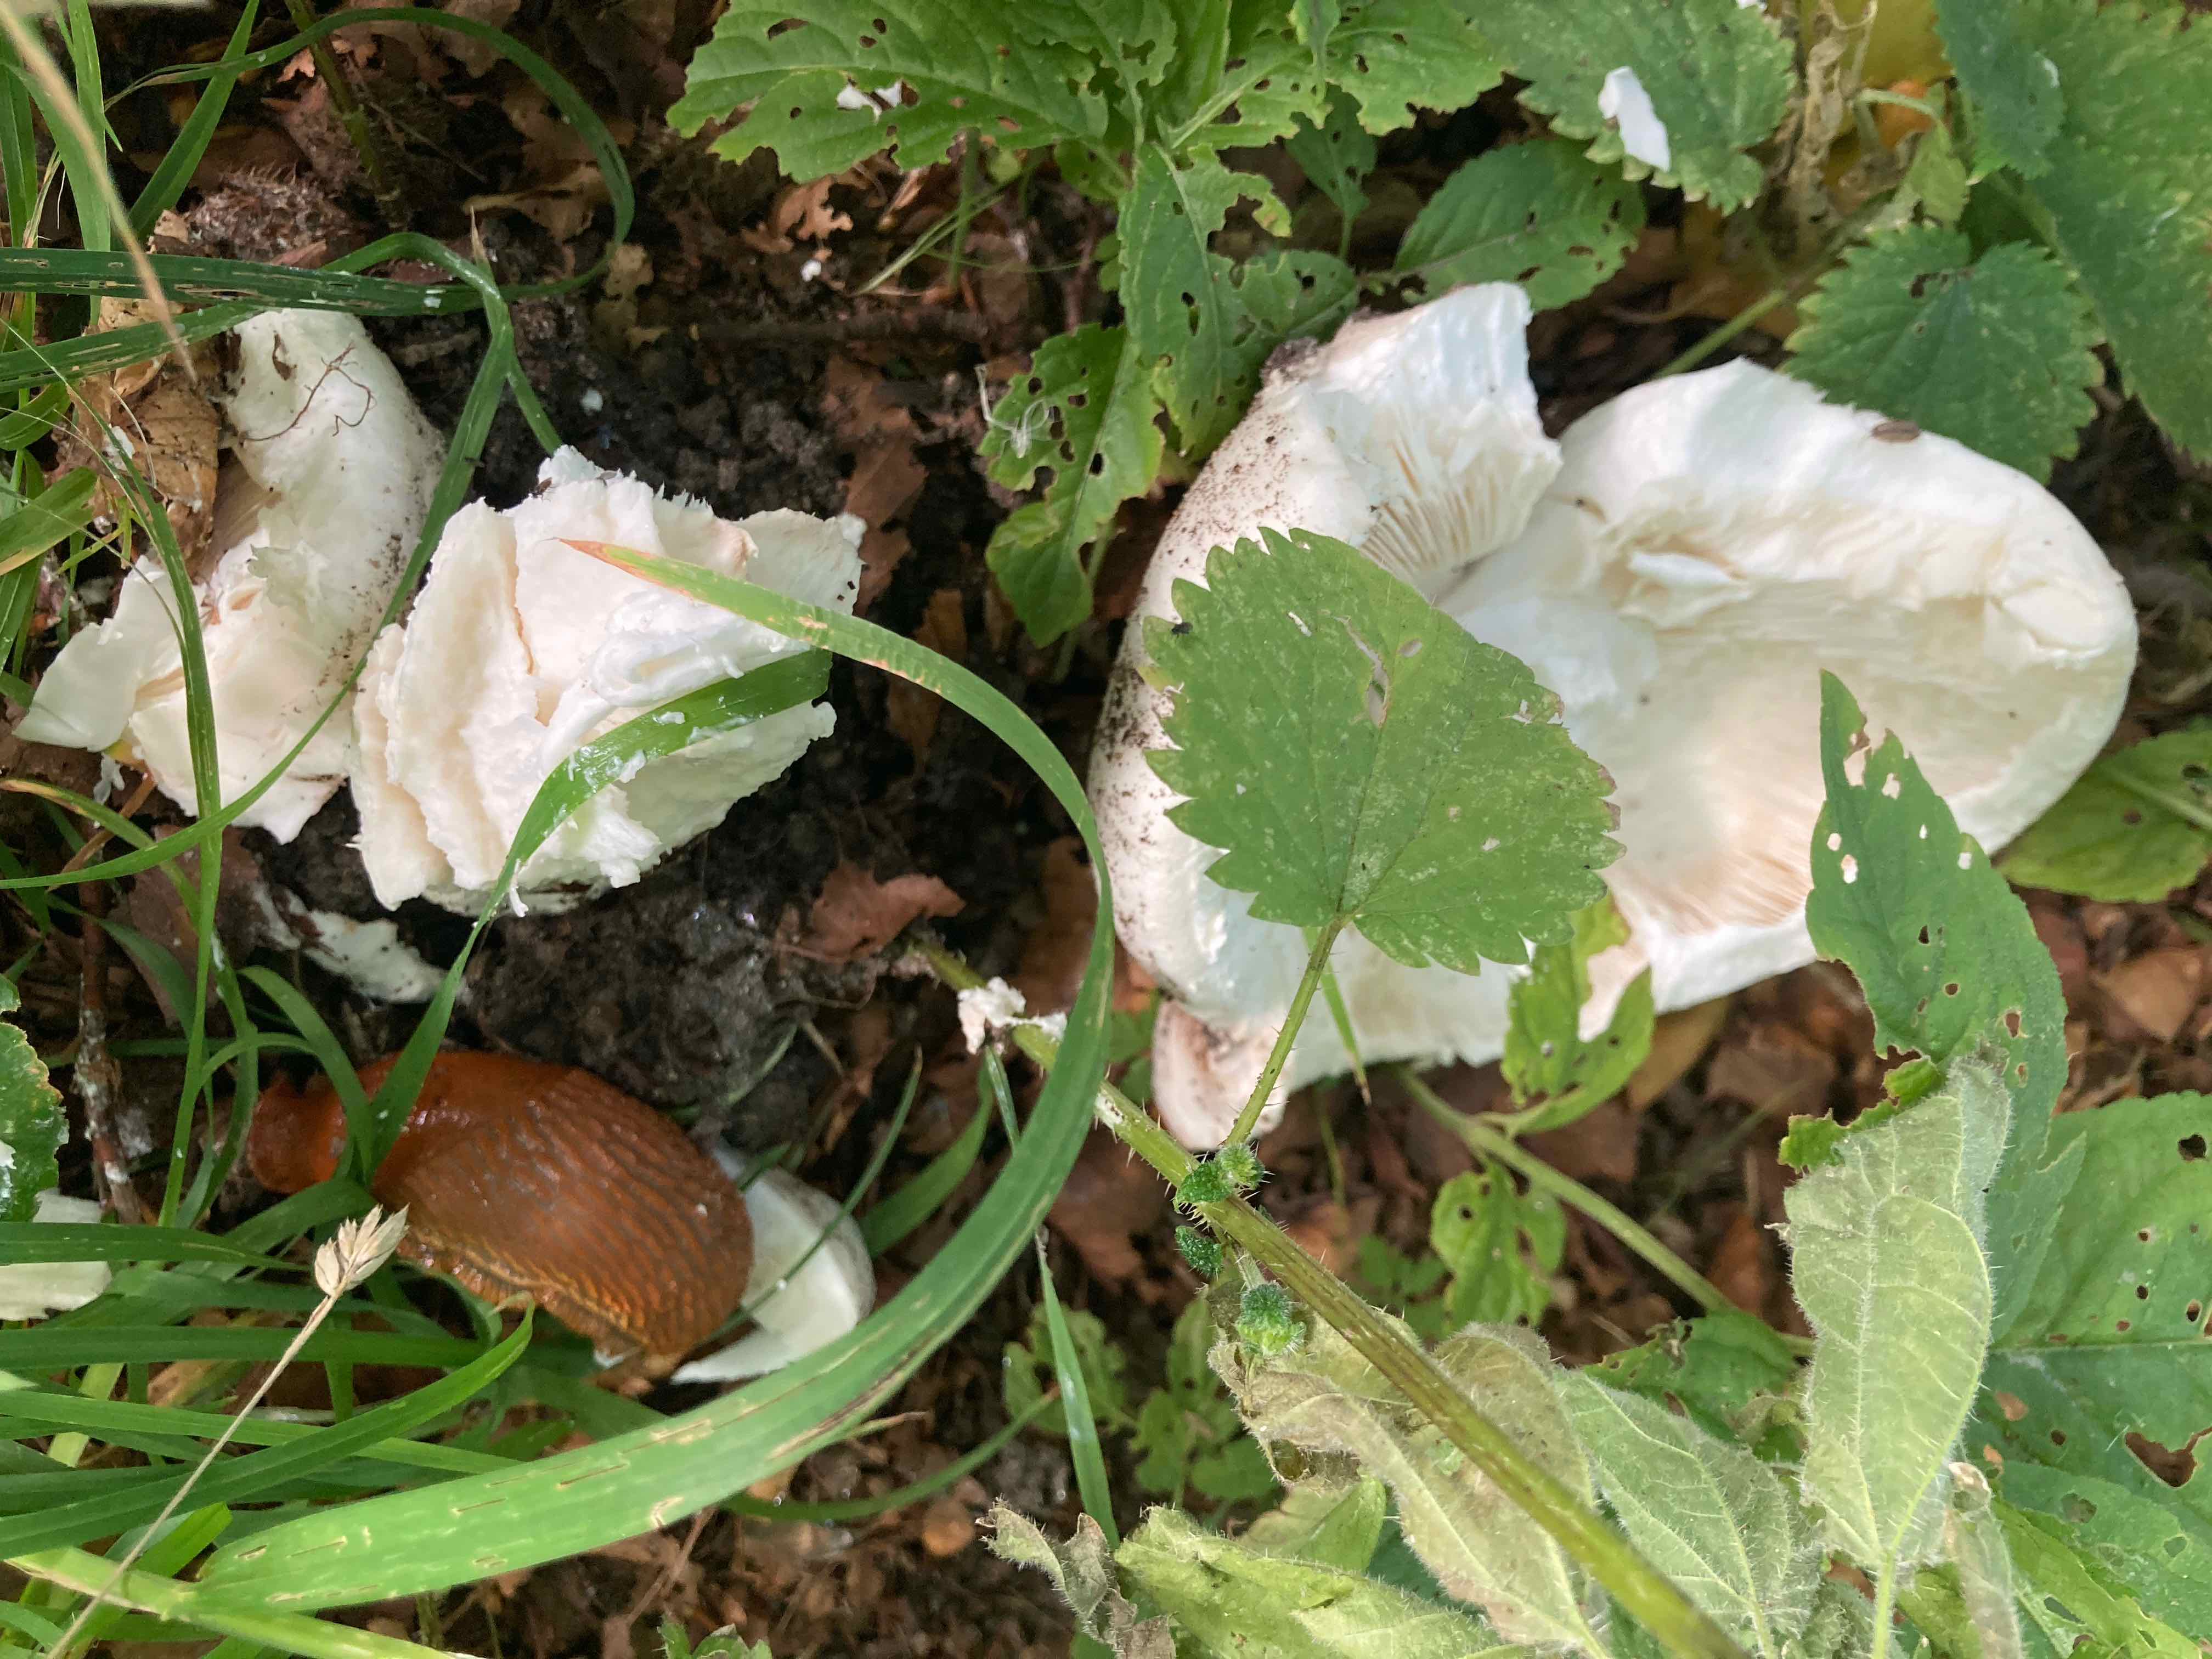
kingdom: Fungi
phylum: Basidiomycota
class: Agaricomycetes
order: Agaricales
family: Amanitaceae
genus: Amanita
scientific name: Amanita
